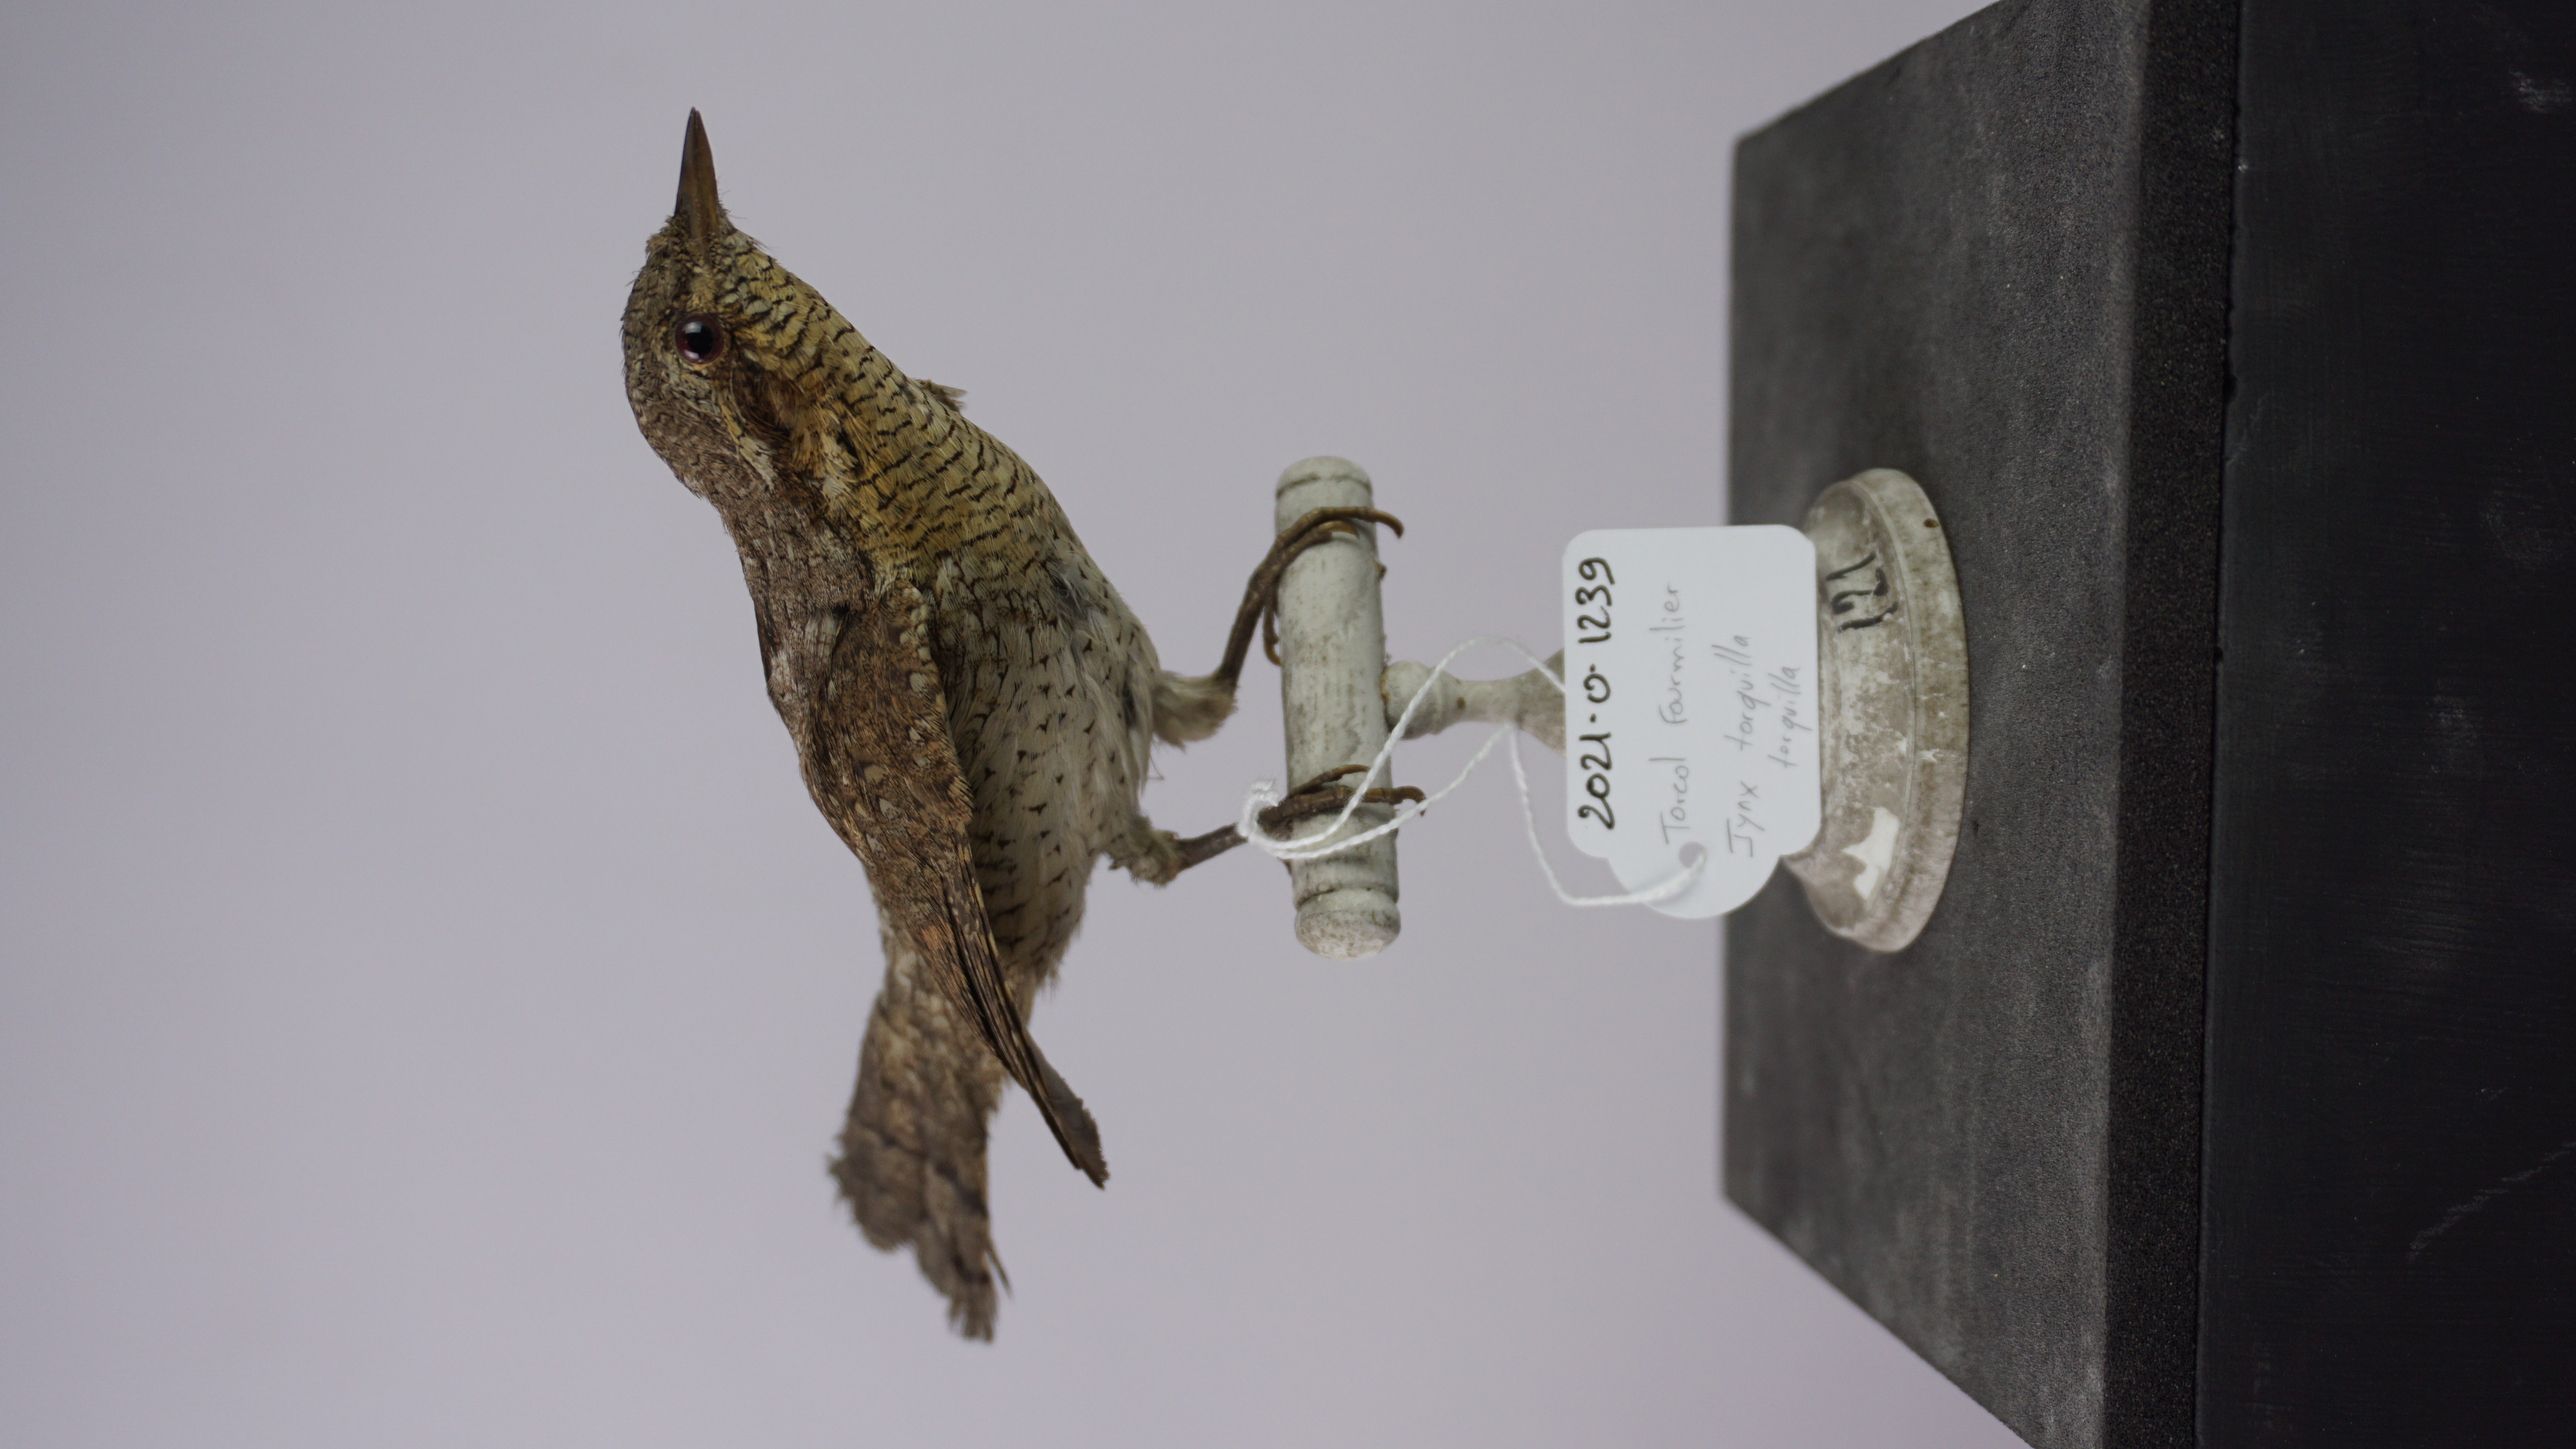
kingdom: Animalia
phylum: Chordata
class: Aves
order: Piciformes
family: Picidae
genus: Jynx
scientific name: Jynx torquilla
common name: Eurasian wryneck
